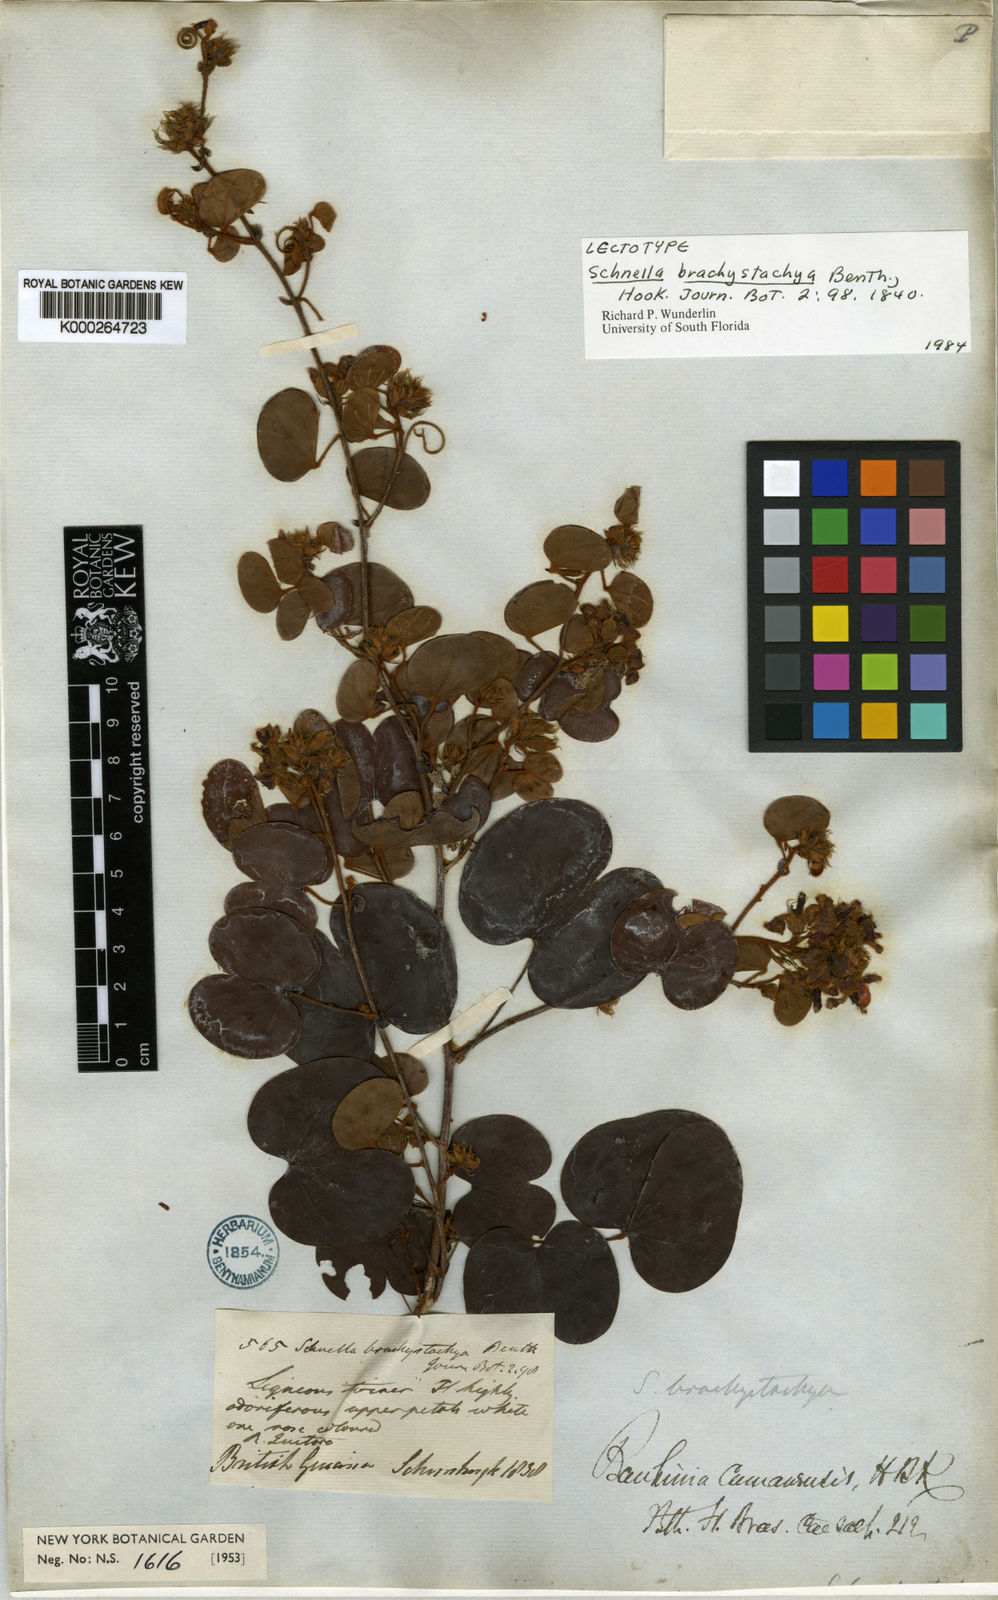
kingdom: Plantae
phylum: Tracheophyta
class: Magnoliopsida
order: Fabales
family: Fabaceae
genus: Schnella
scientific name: Schnella glabra
